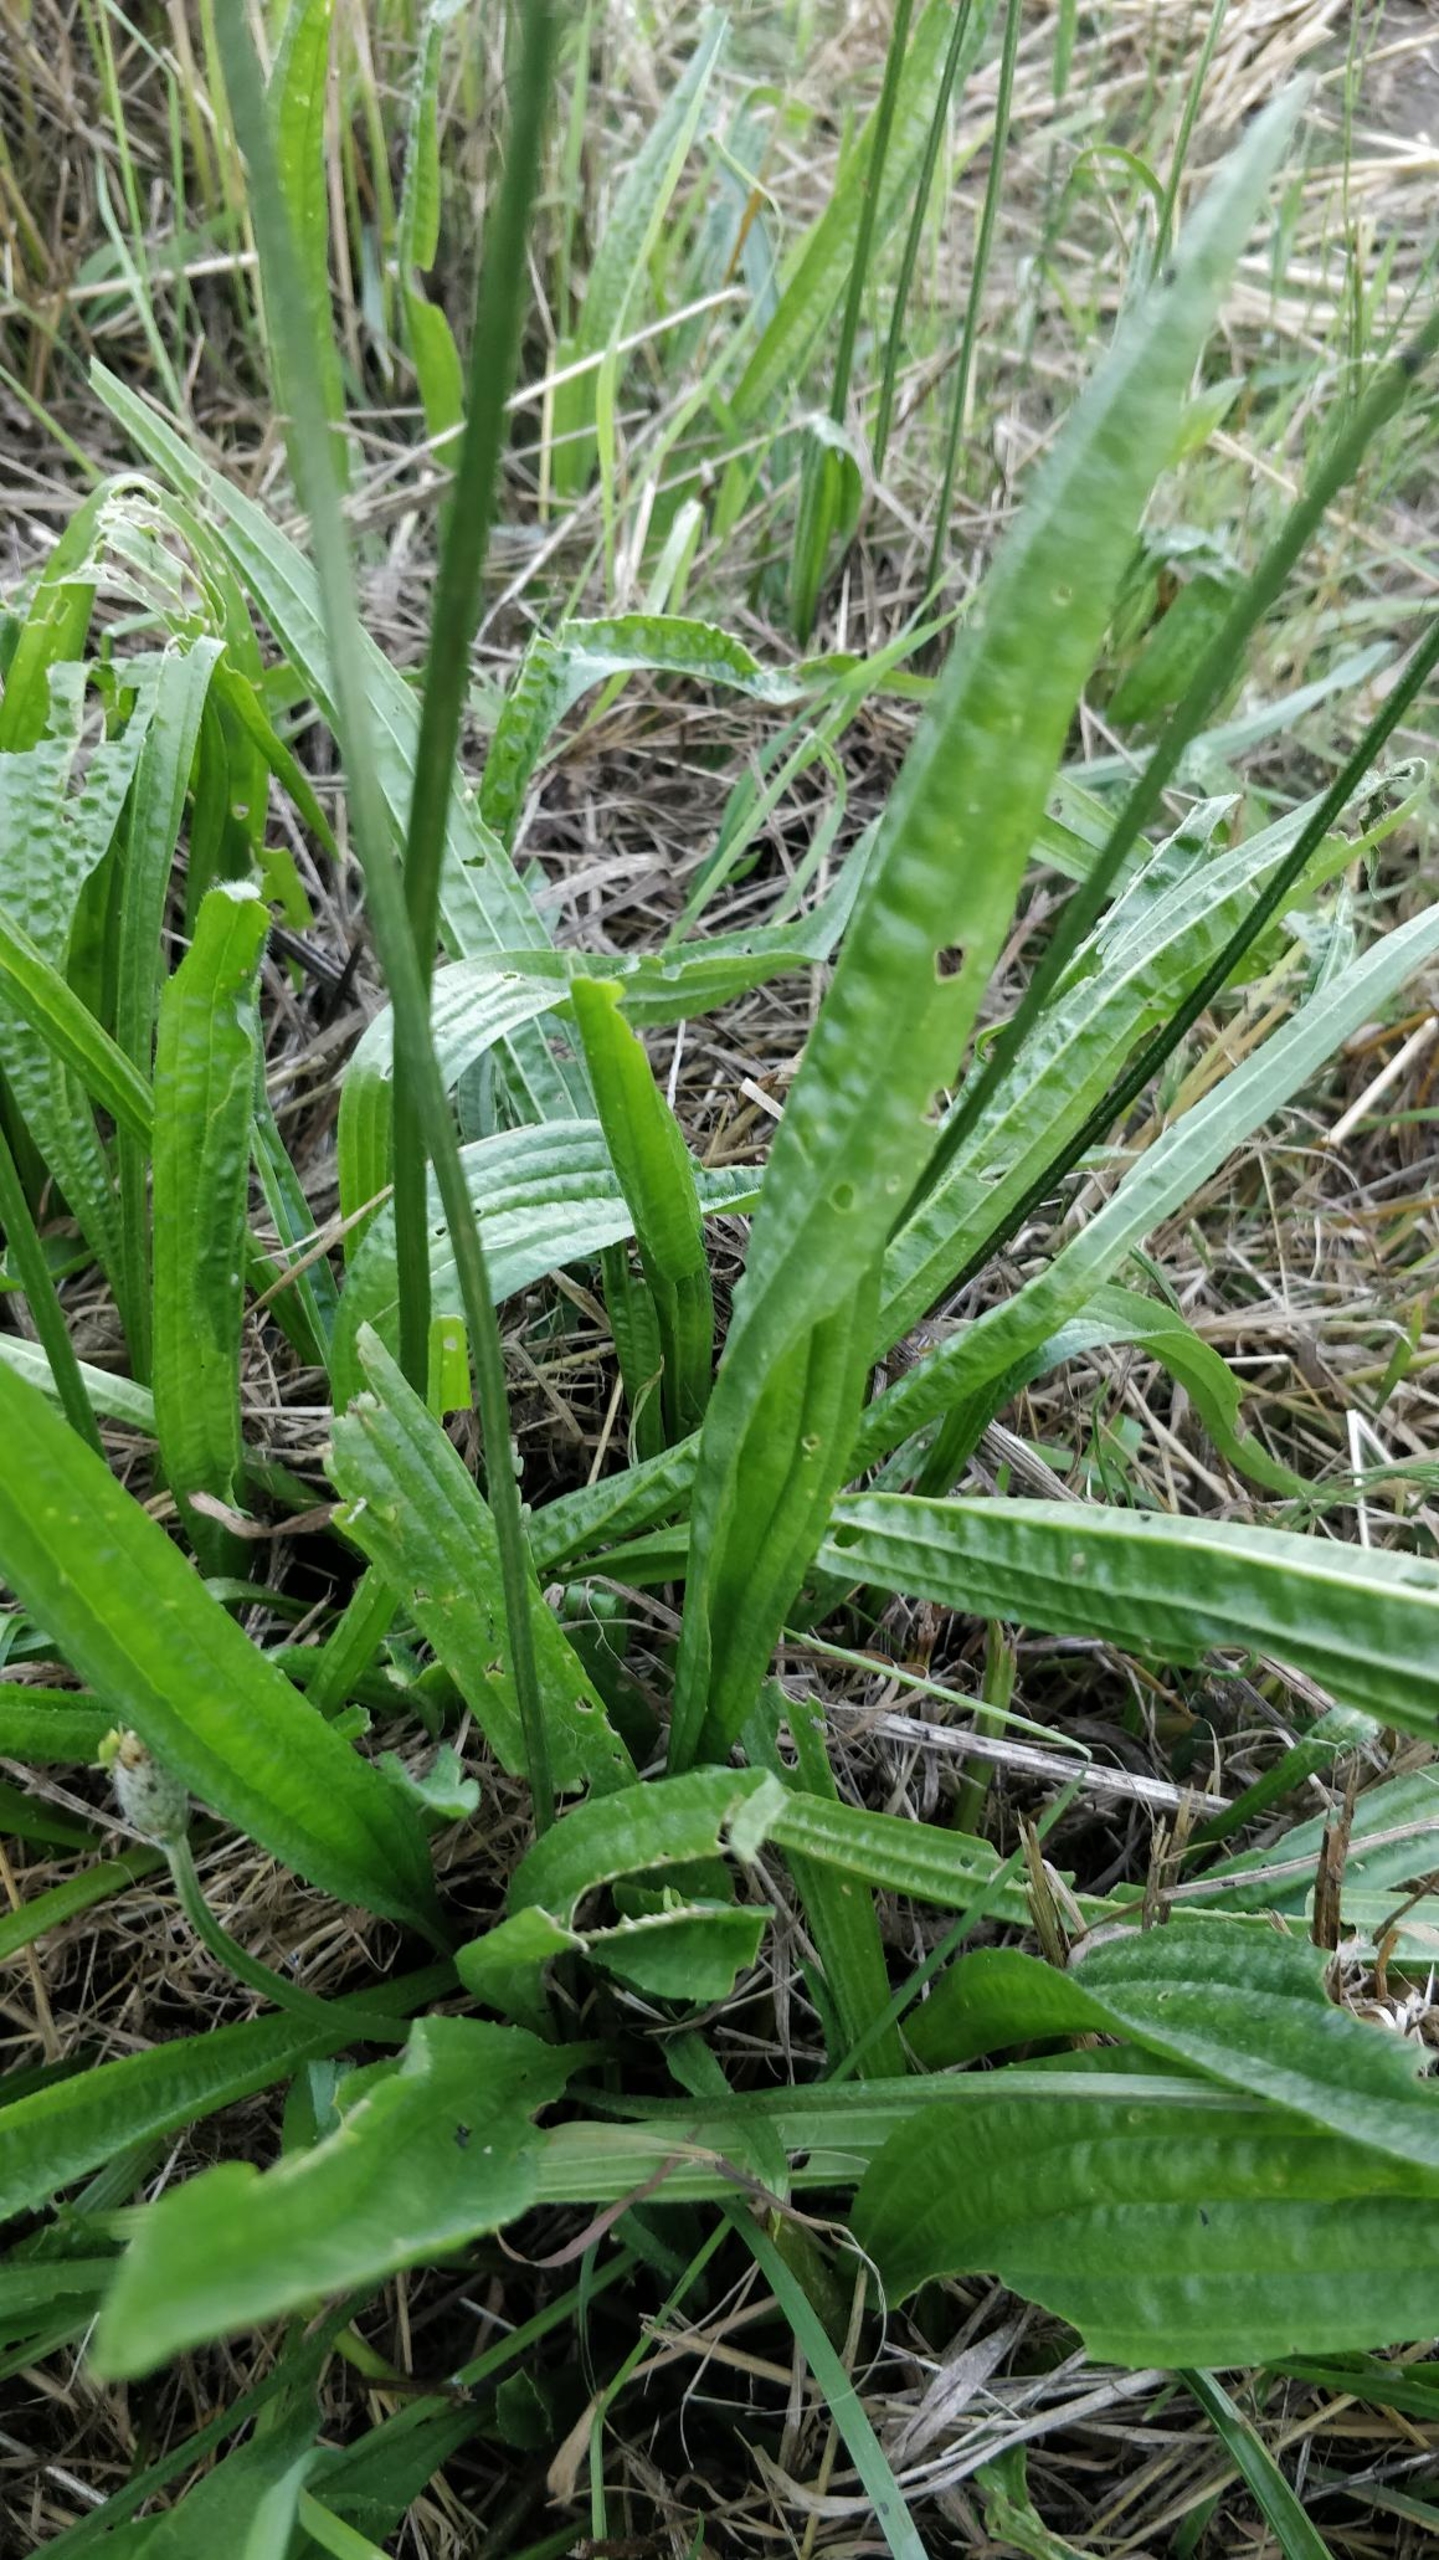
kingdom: Plantae
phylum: Tracheophyta
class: Magnoliopsida
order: Lamiales
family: Plantaginaceae
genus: Plantago
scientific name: Plantago lanceolata
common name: Lancet-vejbred
